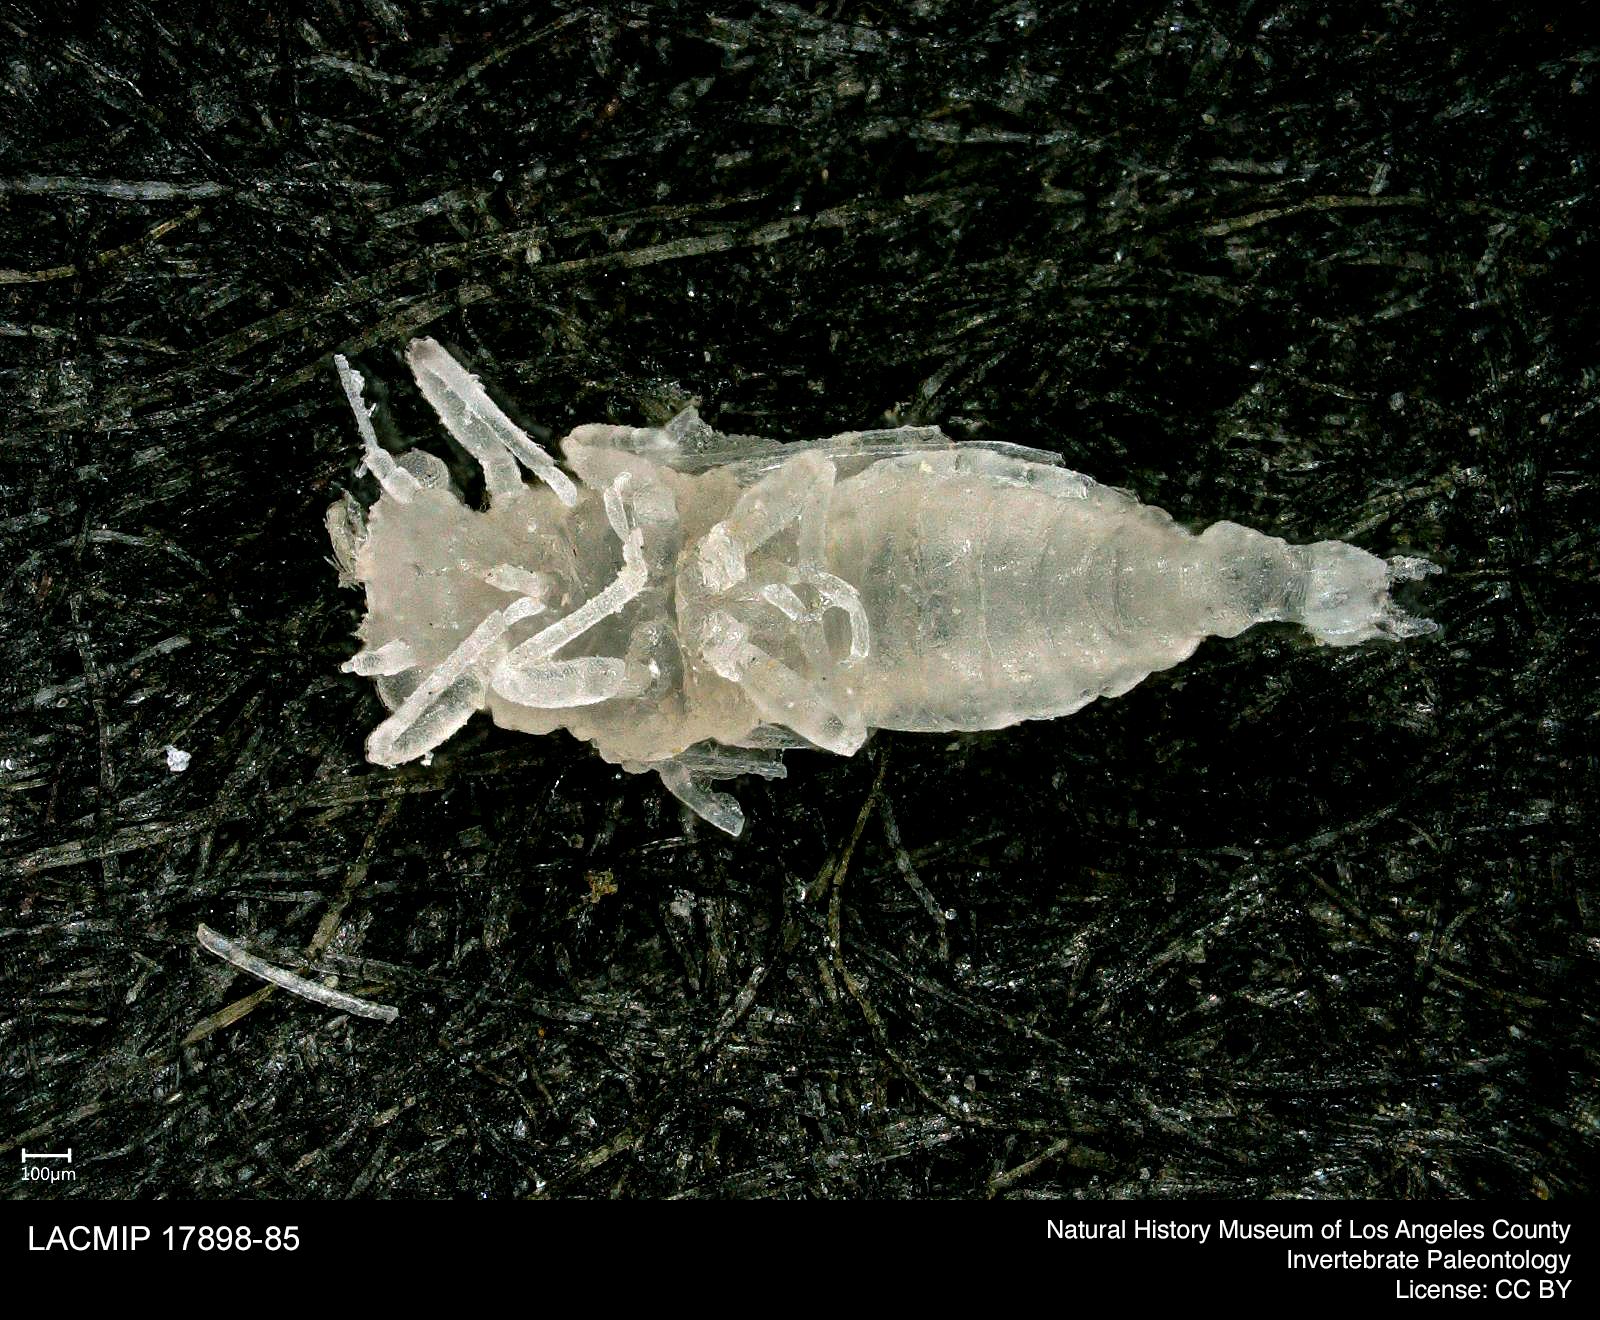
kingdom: Animalia
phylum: Arthropoda
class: Insecta
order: Hemiptera
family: Psyllidae
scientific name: Psyllidae
